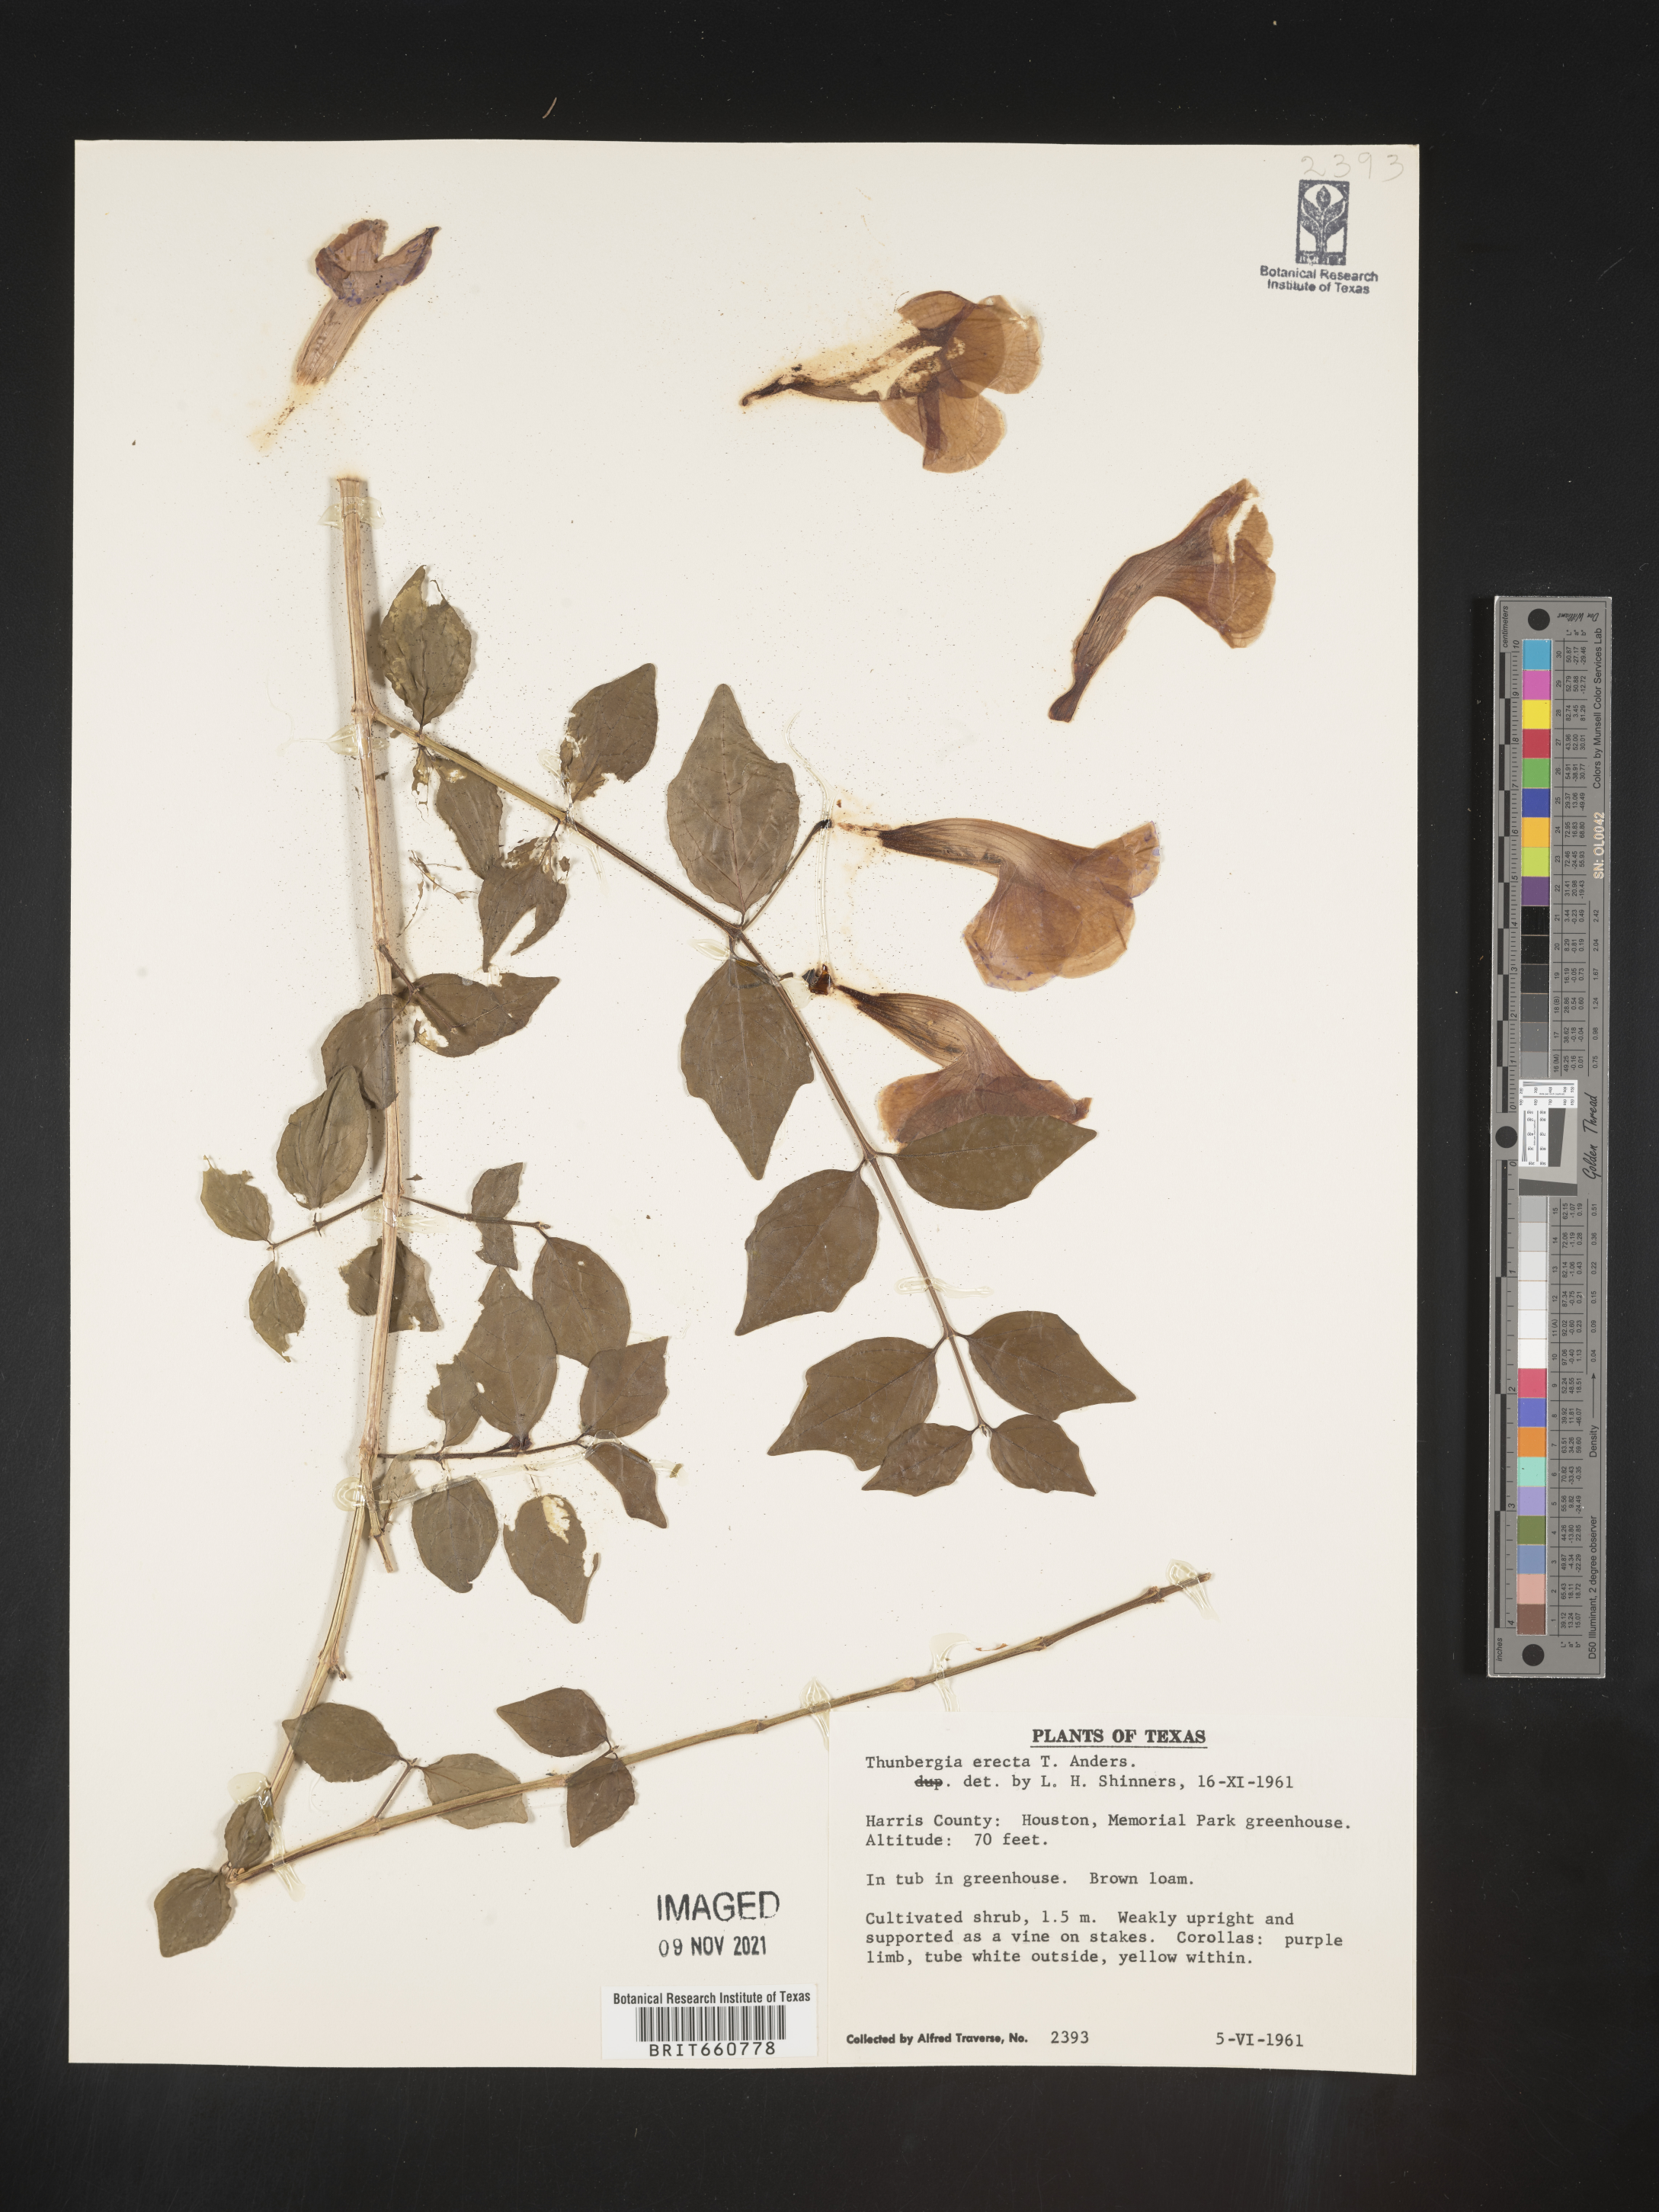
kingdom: Plantae
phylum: Tracheophyta
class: Magnoliopsida
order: Lamiales
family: Acanthaceae
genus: Thunbergia
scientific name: Thunbergia
